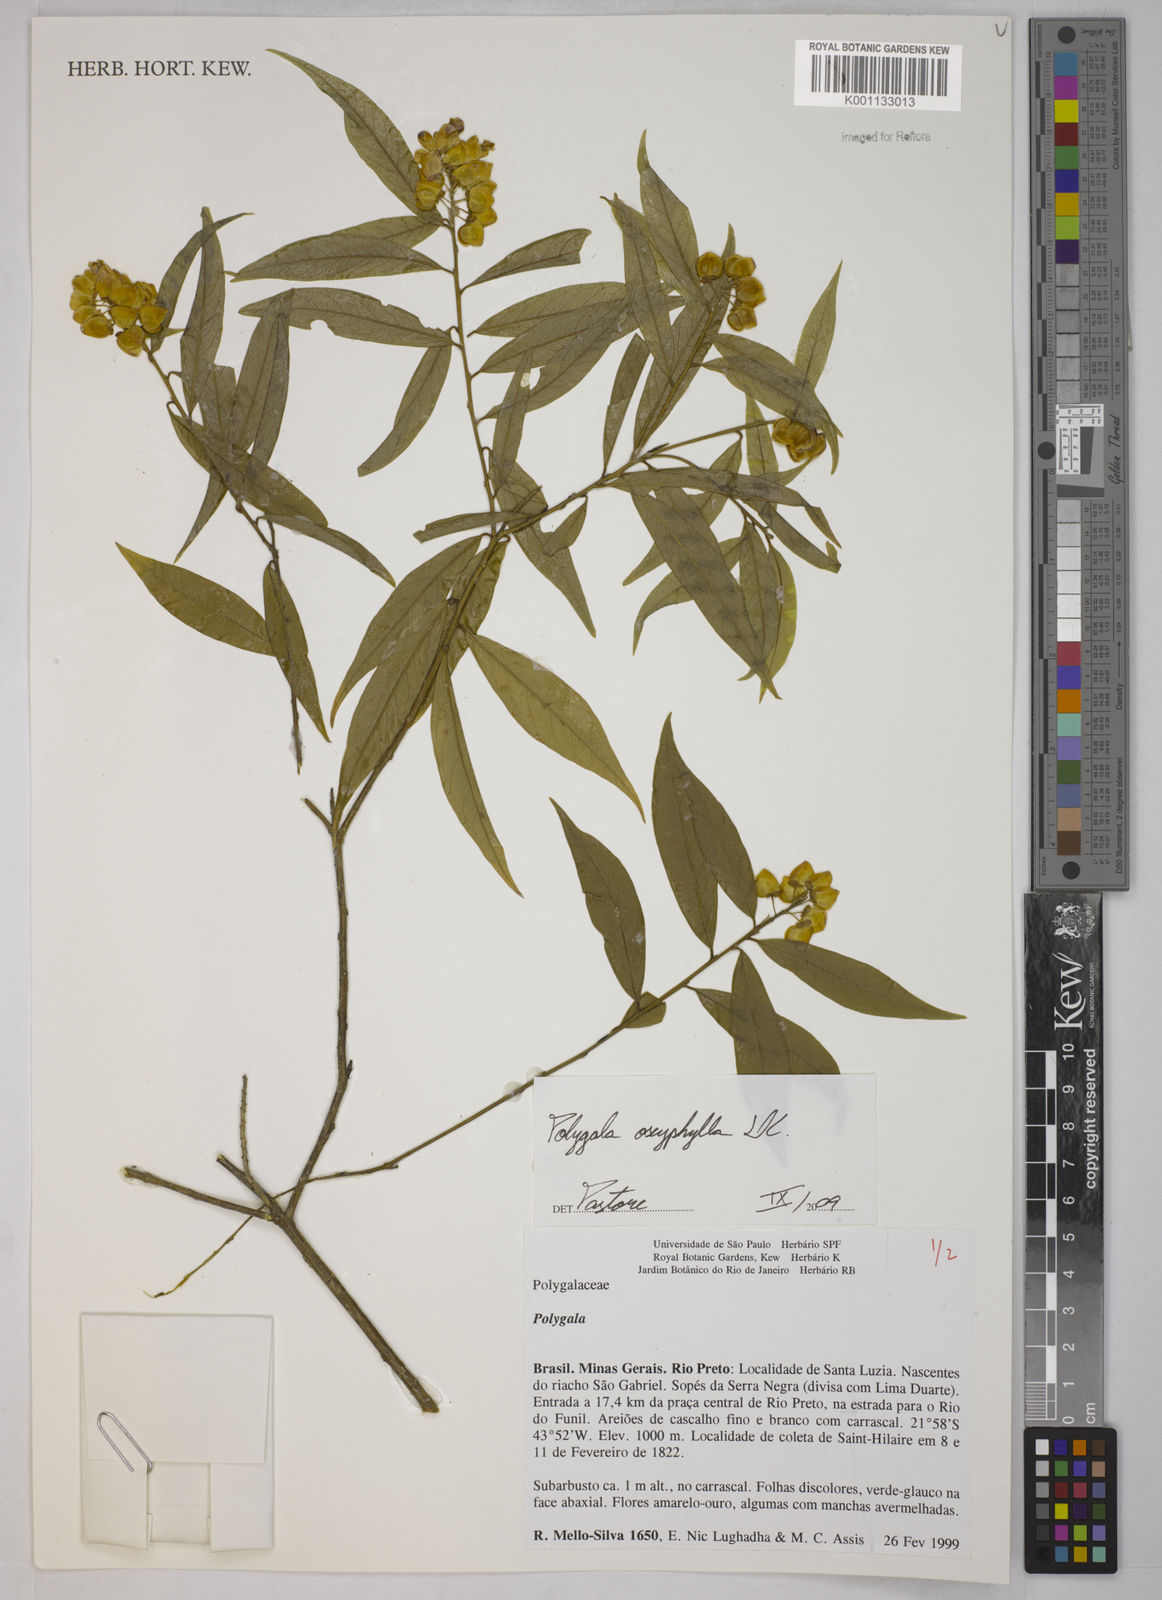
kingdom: Plantae
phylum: Tracheophyta
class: Magnoliopsida
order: Fabales
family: Polygalaceae
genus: Caamembeca
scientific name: Caamembeca oxyphylla
